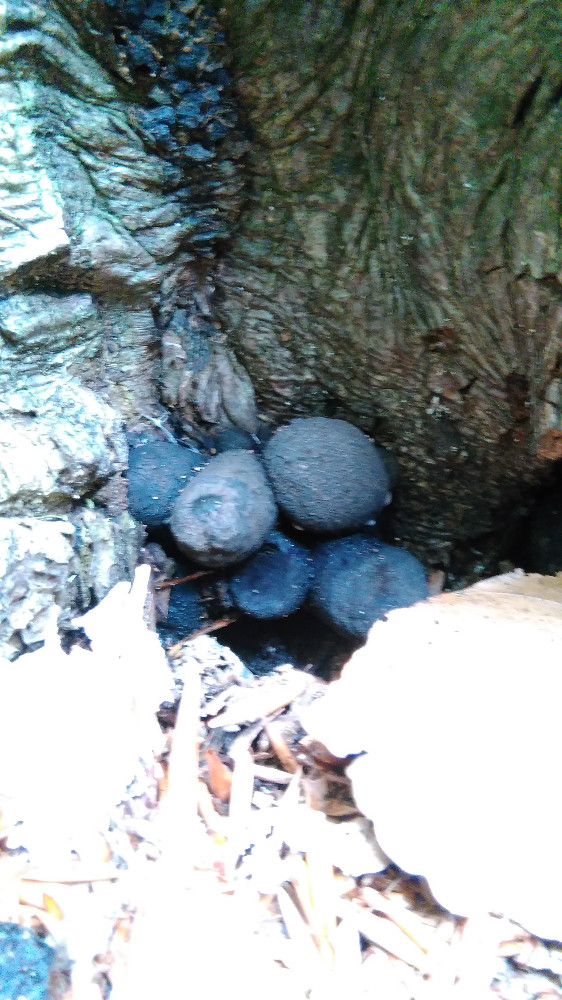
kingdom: Fungi
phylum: Ascomycota
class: Sordariomycetes
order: Xylariales
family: Xylariaceae
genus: Xylaria
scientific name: Xylaria polymorpha
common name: kølle-stødsvamp
